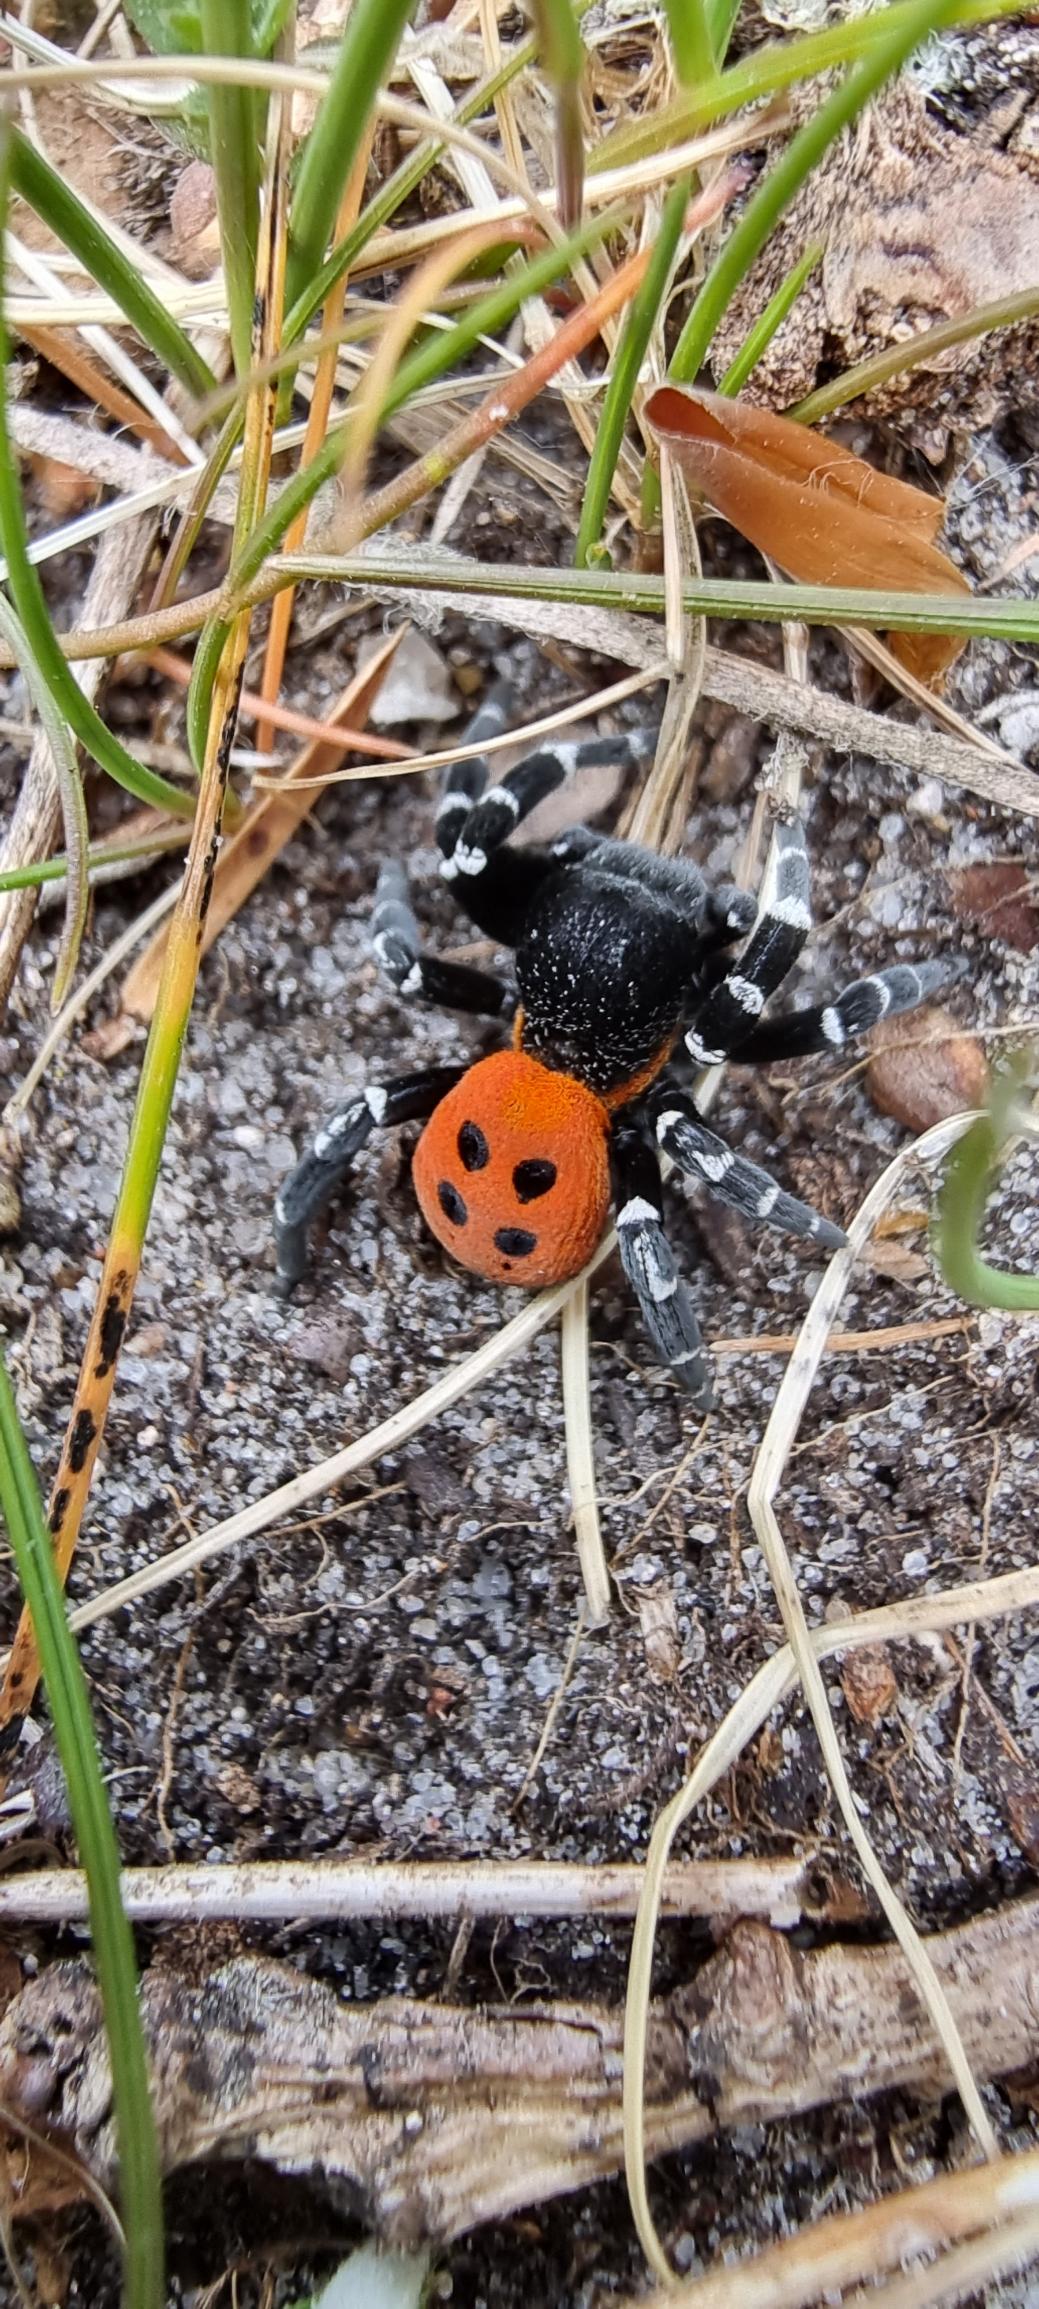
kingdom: Animalia
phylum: Arthropoda
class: Arachnida
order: Araneae
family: Eresidae
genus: Eresus
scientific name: Eresus sandaliatus
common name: Mariehøneedderkop
